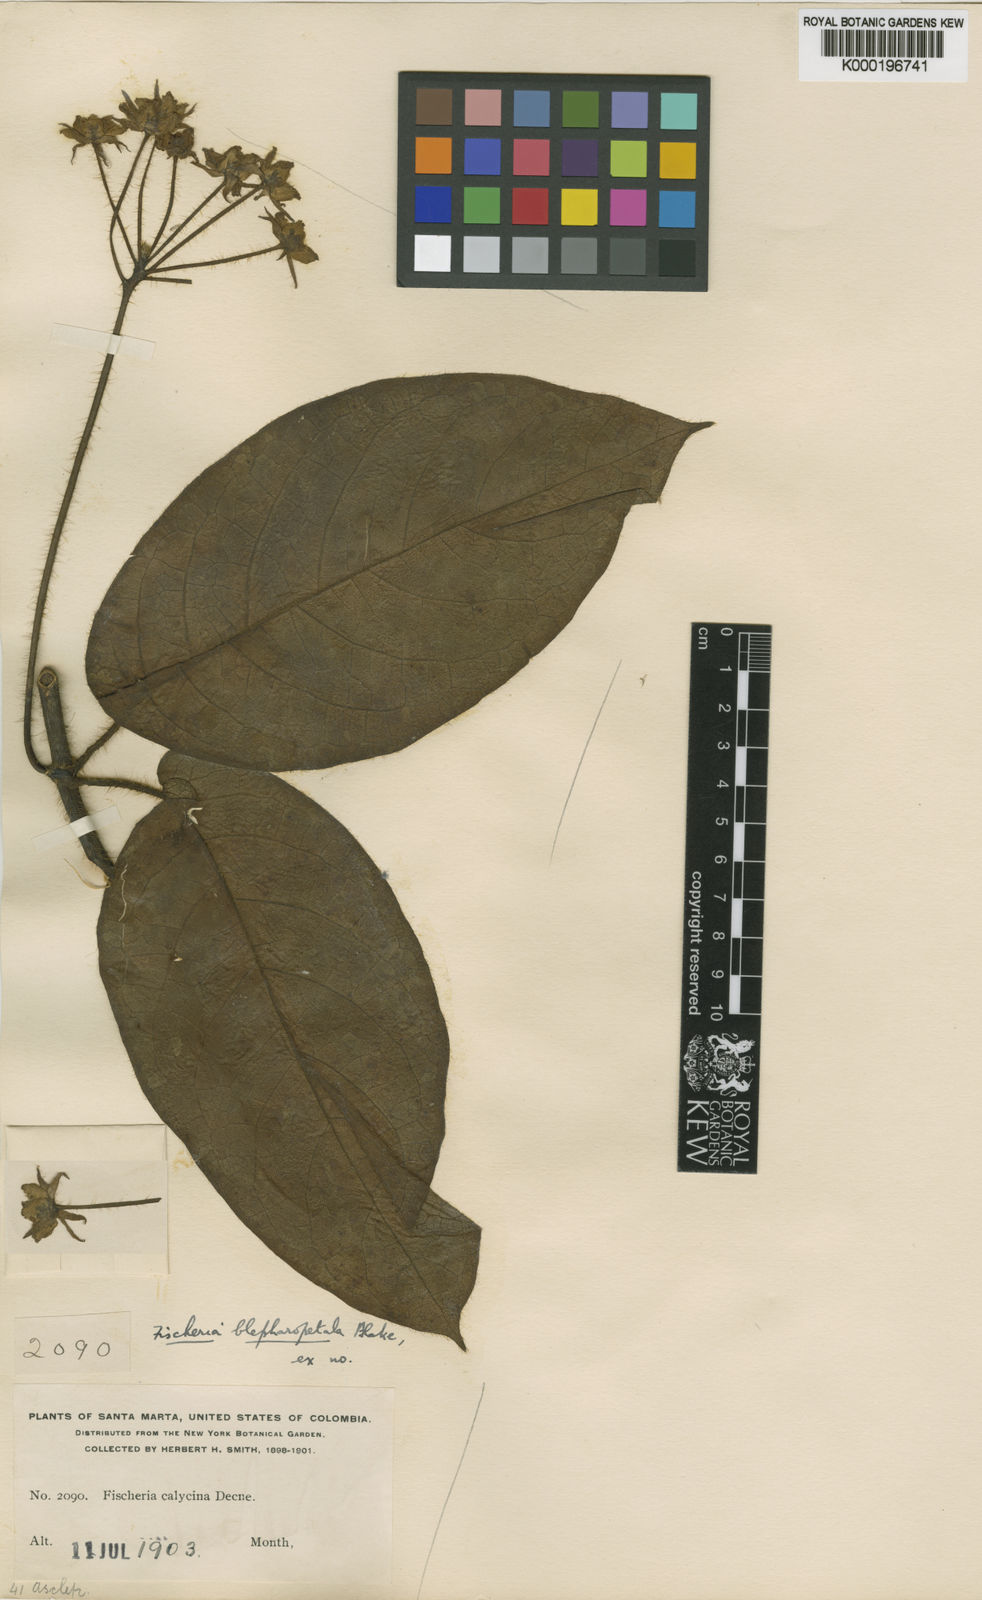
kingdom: Plantae
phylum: Tracheophyta
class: Magnoliopsida
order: Gentianales
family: Apocynaceae
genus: Fischeria
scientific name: Fischeria billbergiana
